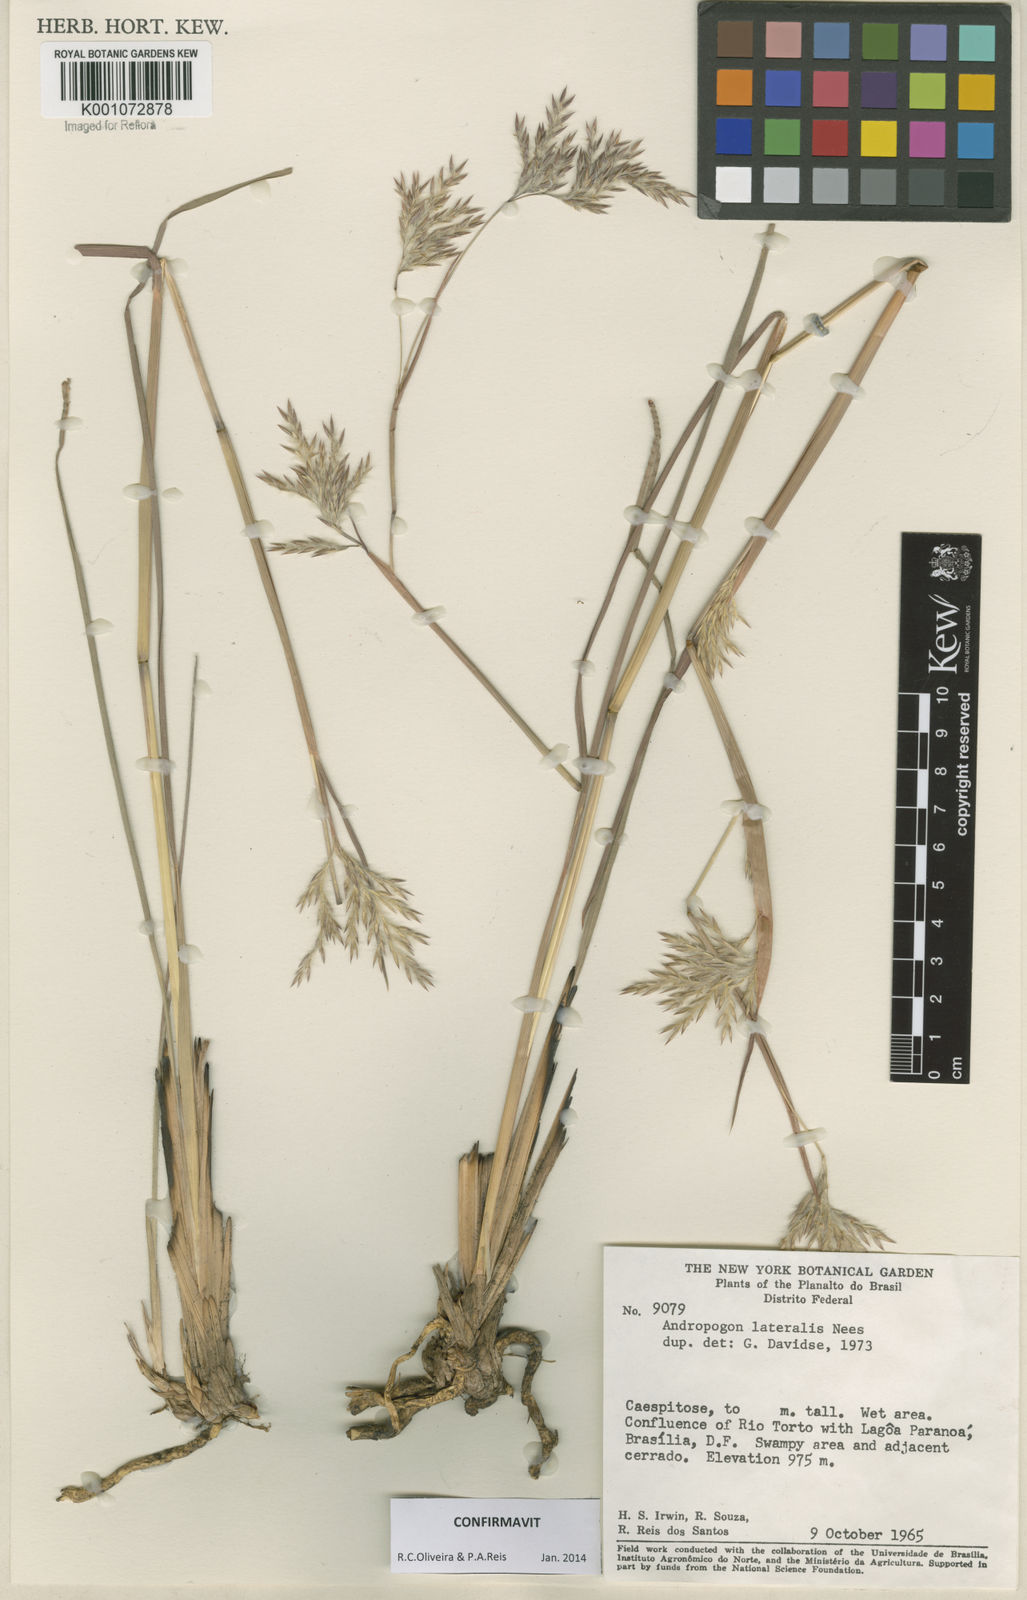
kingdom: Plantae
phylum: Tracheophyta
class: Liliopsida
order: Poales
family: Poaceae
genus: Andropogon
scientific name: Andropogon lateralis
